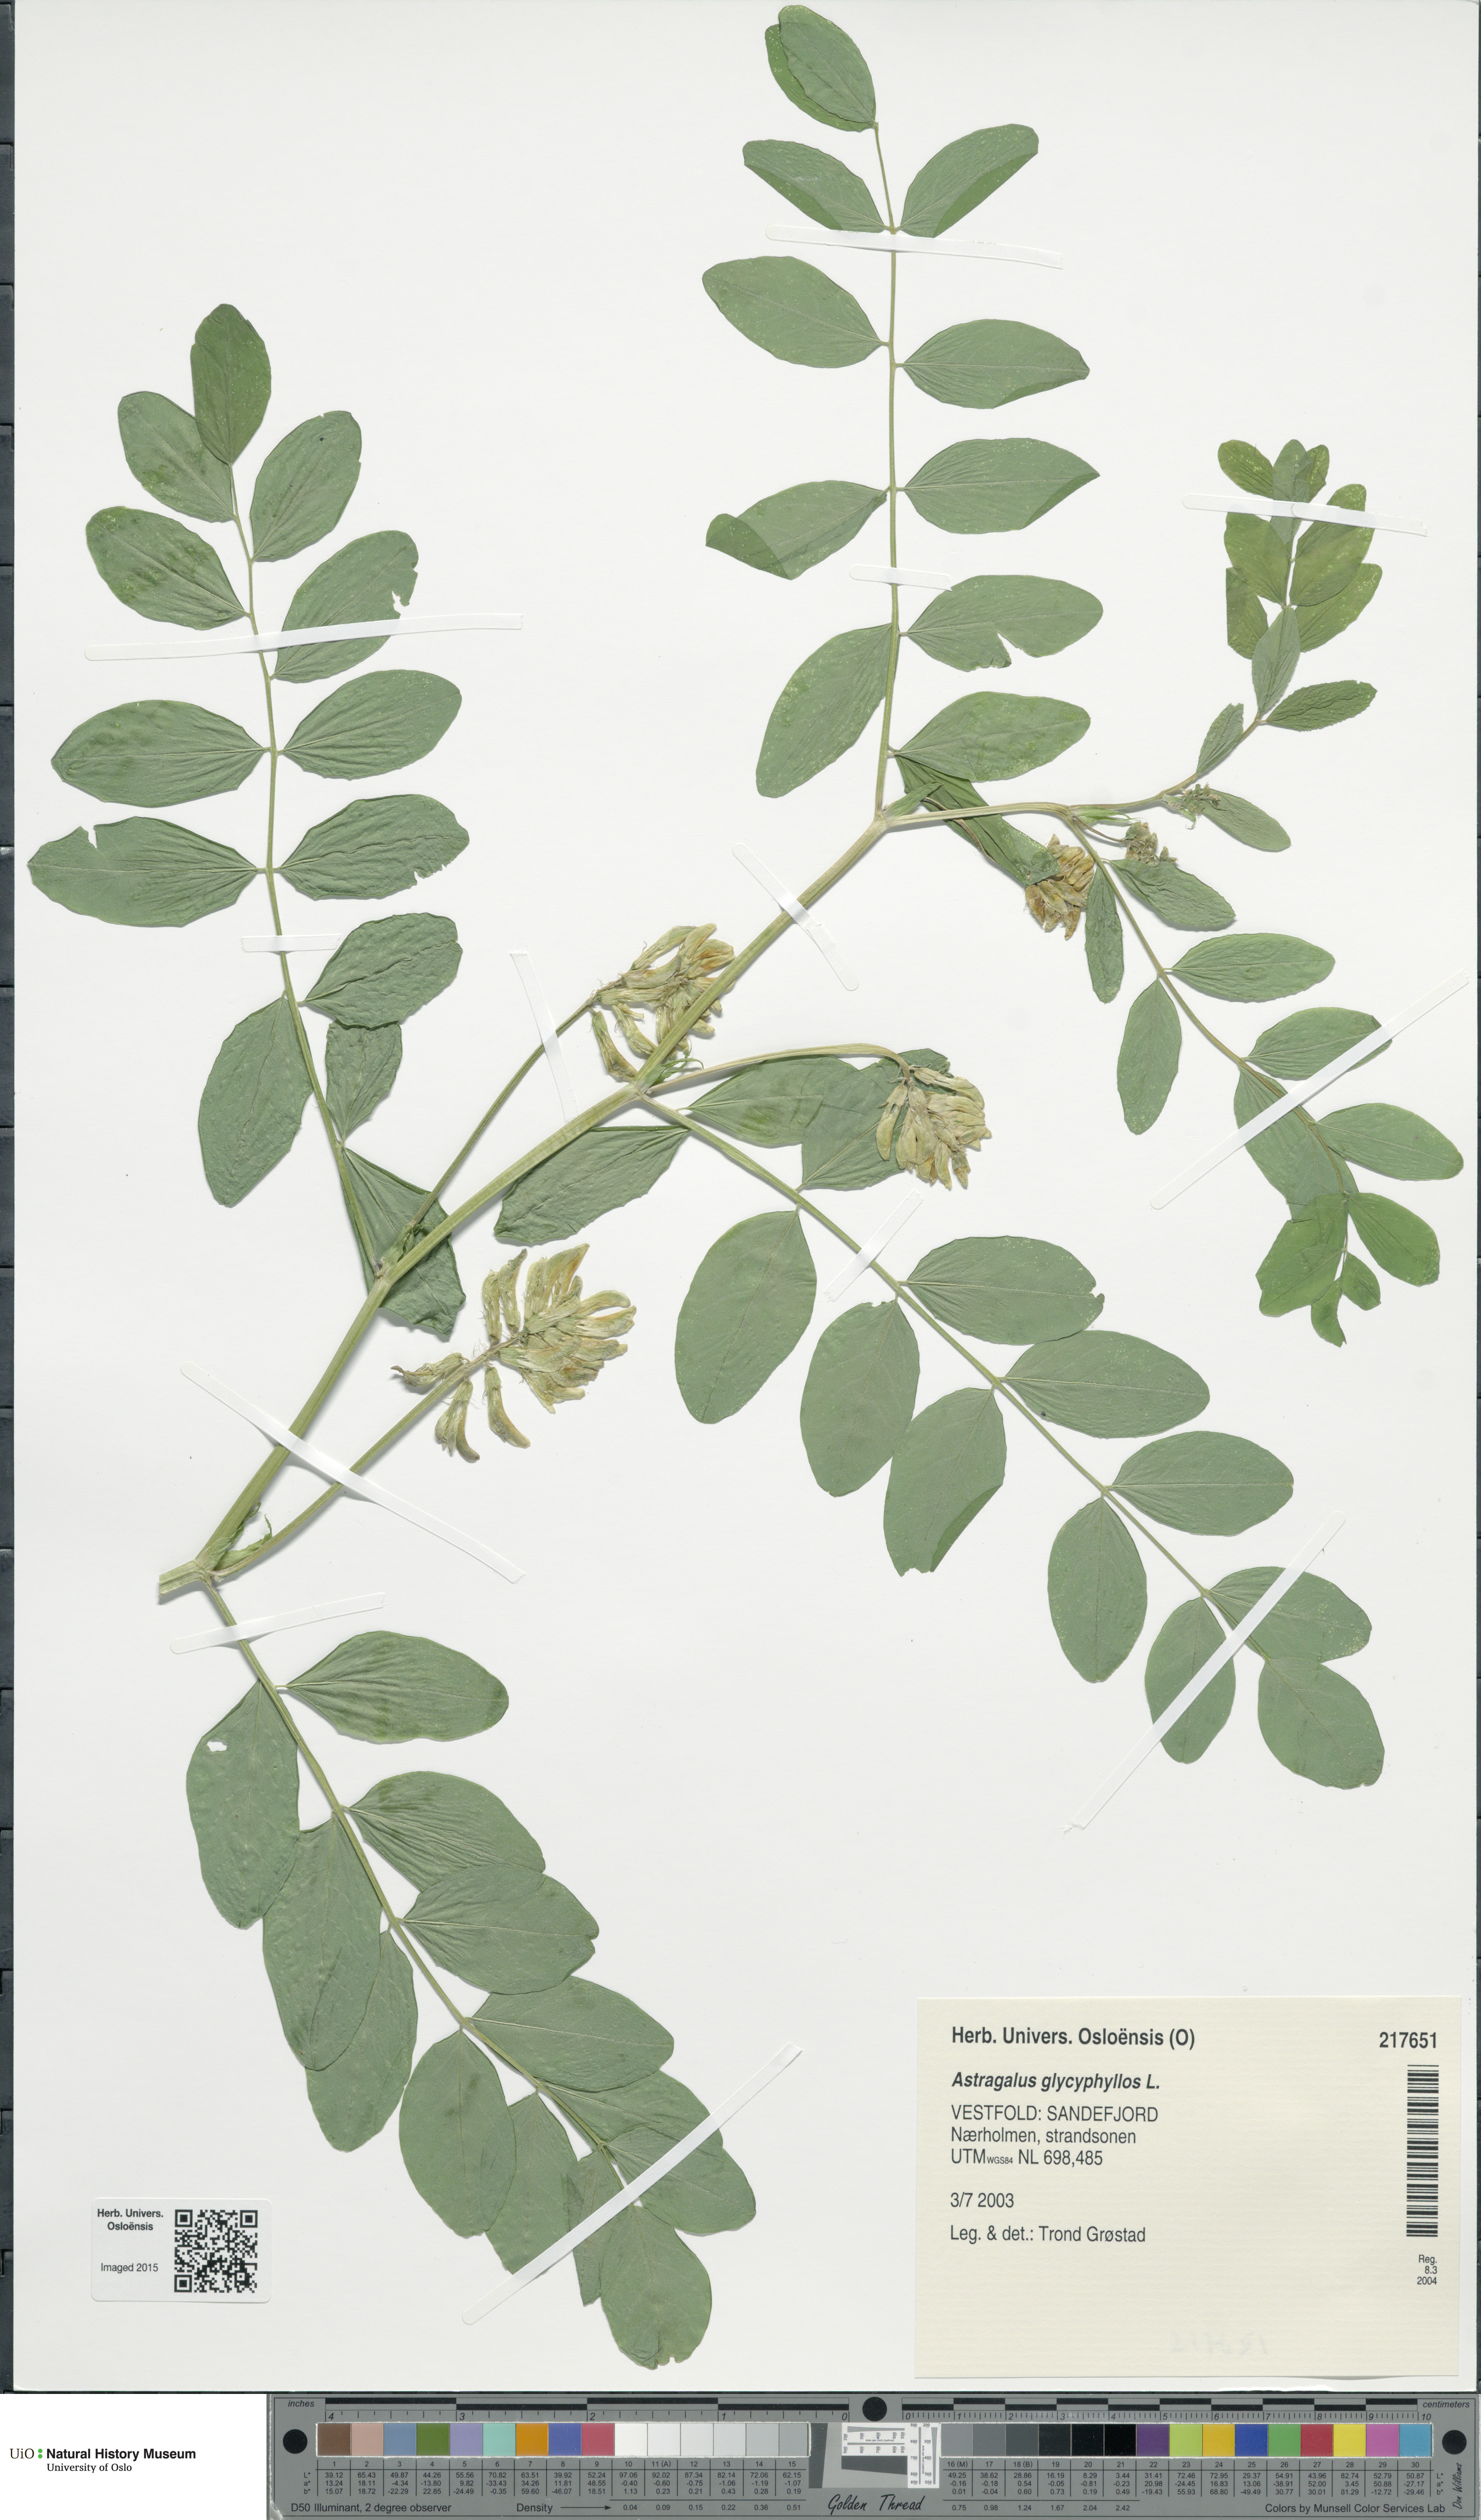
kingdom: Plantae
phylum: Tracheophyta
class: Magnoliopsida
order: Fabales
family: Fabaceae
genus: Astragalus
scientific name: Astragalus glycyphyllos
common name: Wild liquorice
